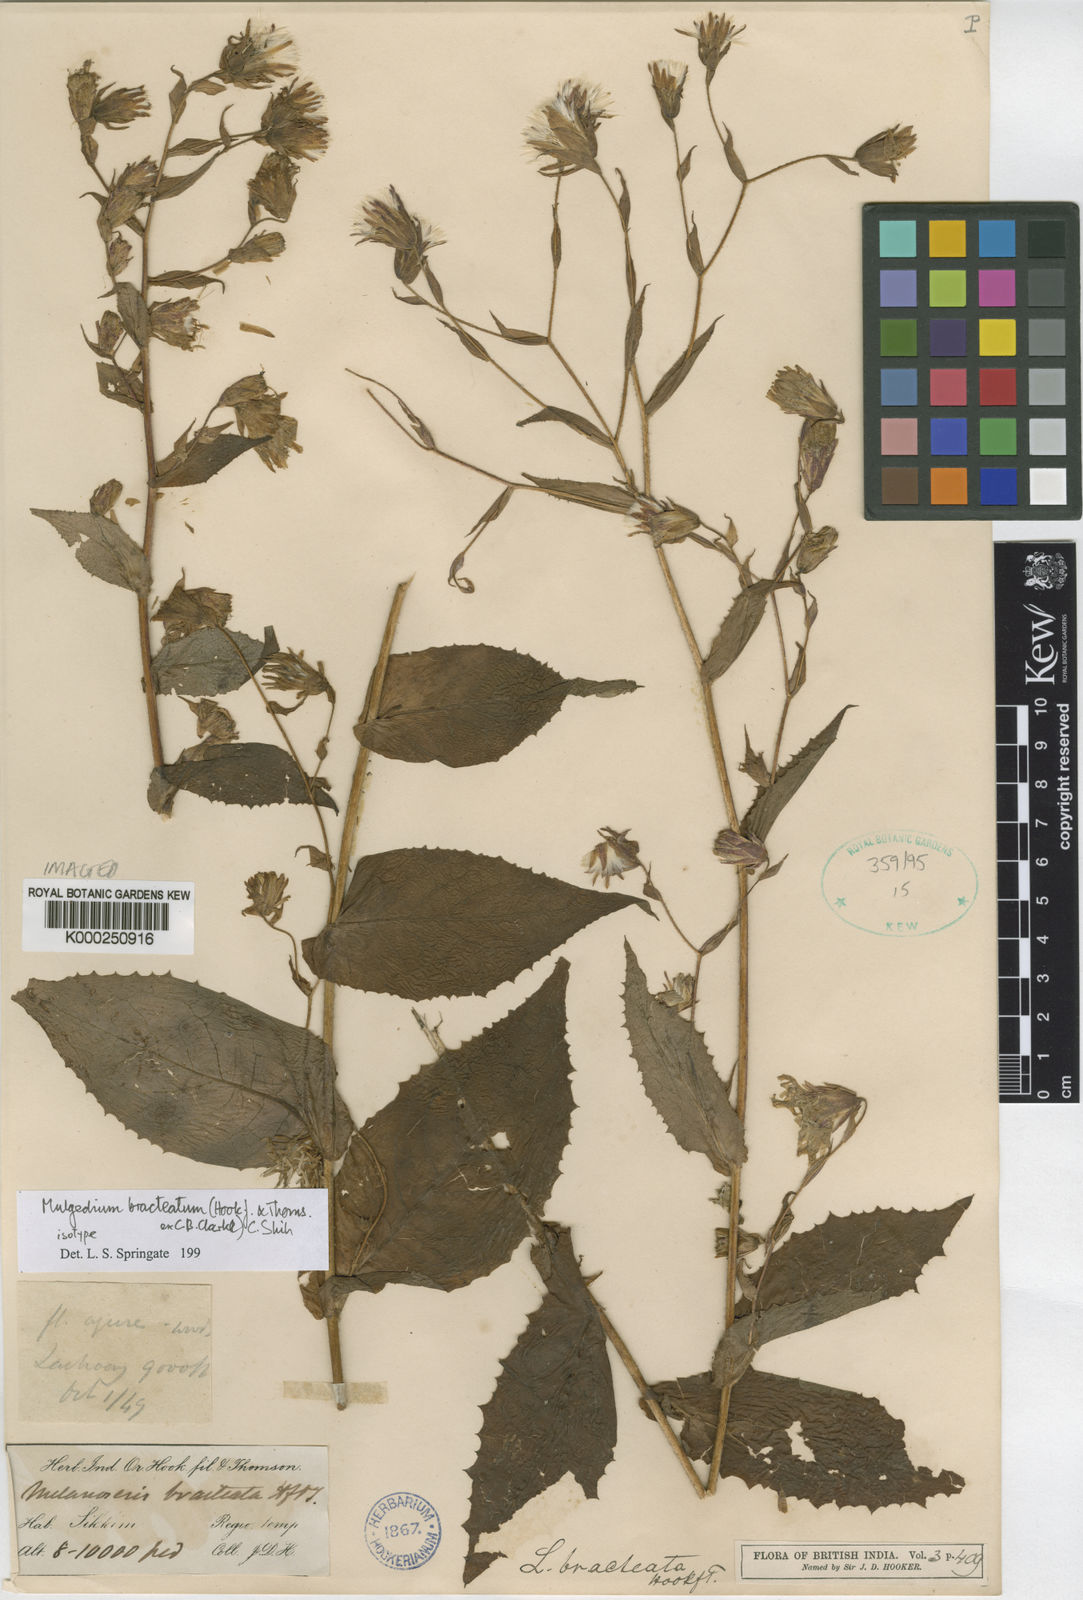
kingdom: Plantae
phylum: Tracheophyta
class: Magnoliopsida
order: Asterales
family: Asteraceae
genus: Lactuca
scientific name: Lactuca bracteata
